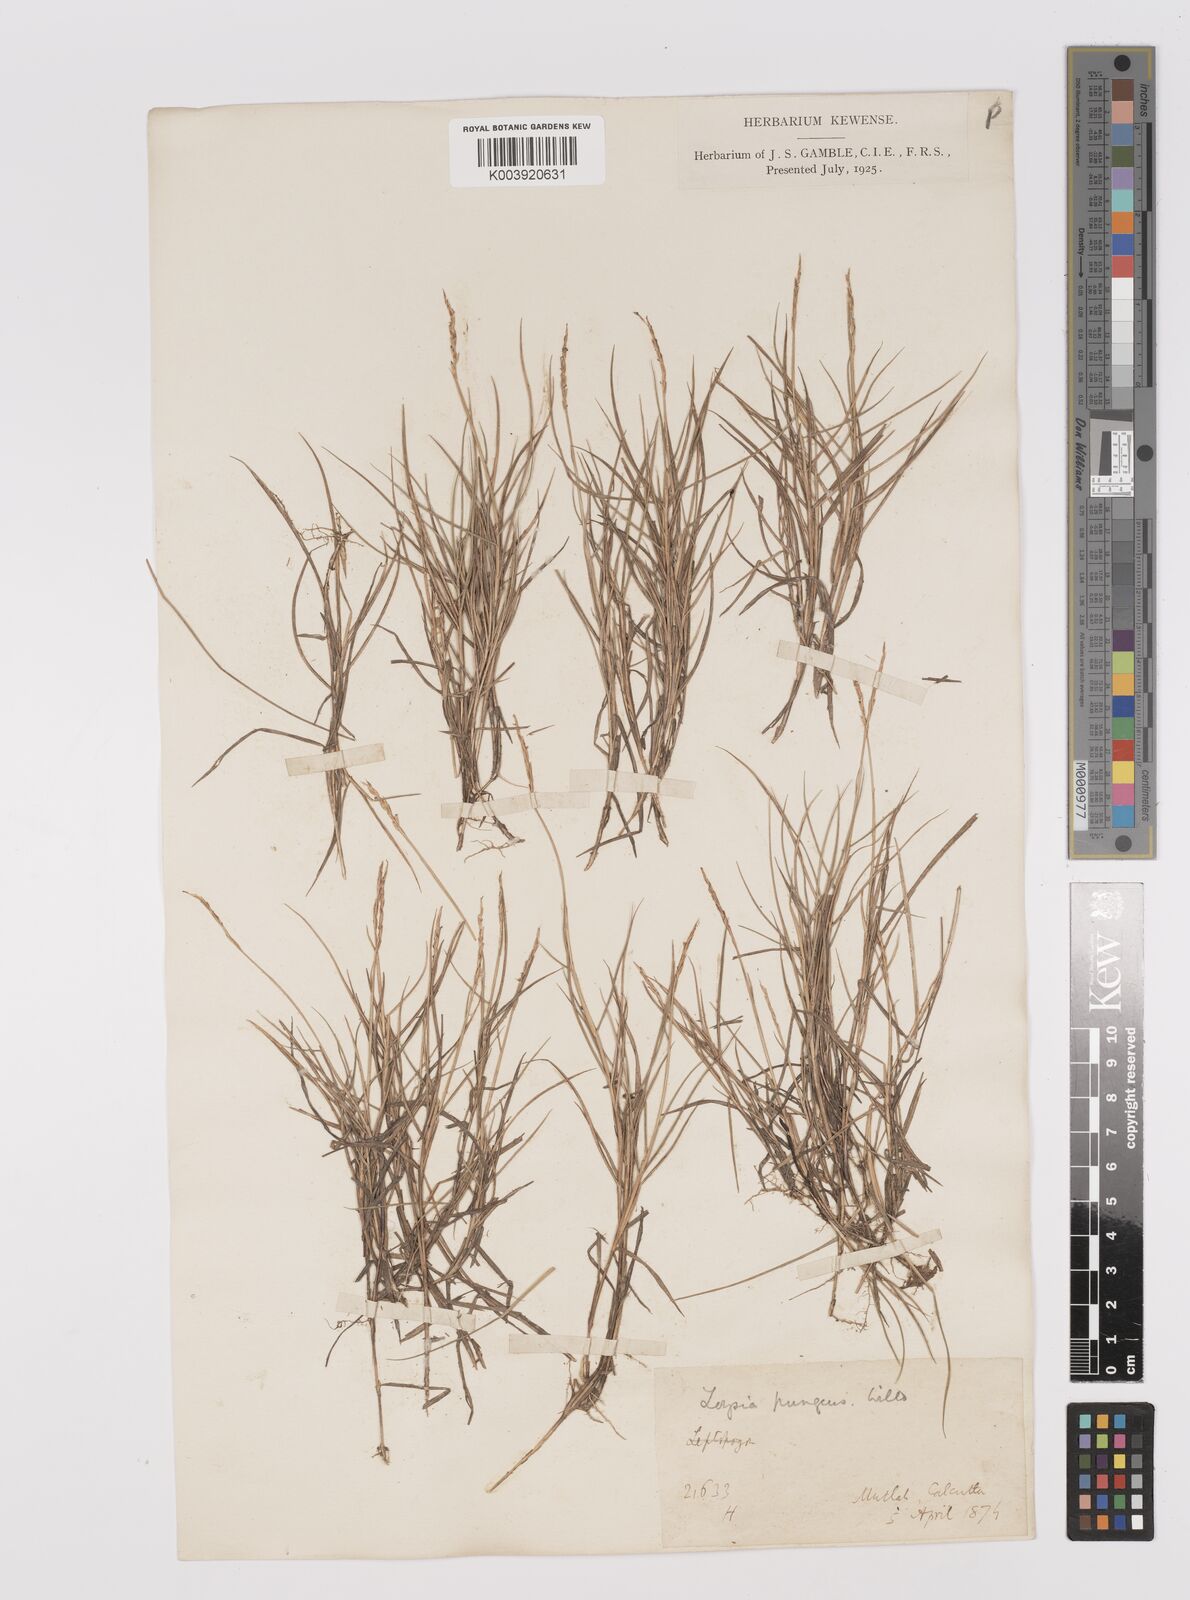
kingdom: Plantae
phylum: Tracheophyta
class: Liliopsida
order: Poales
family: Poaceae
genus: Zoysia
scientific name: Zoysia matrella
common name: Manila grass
